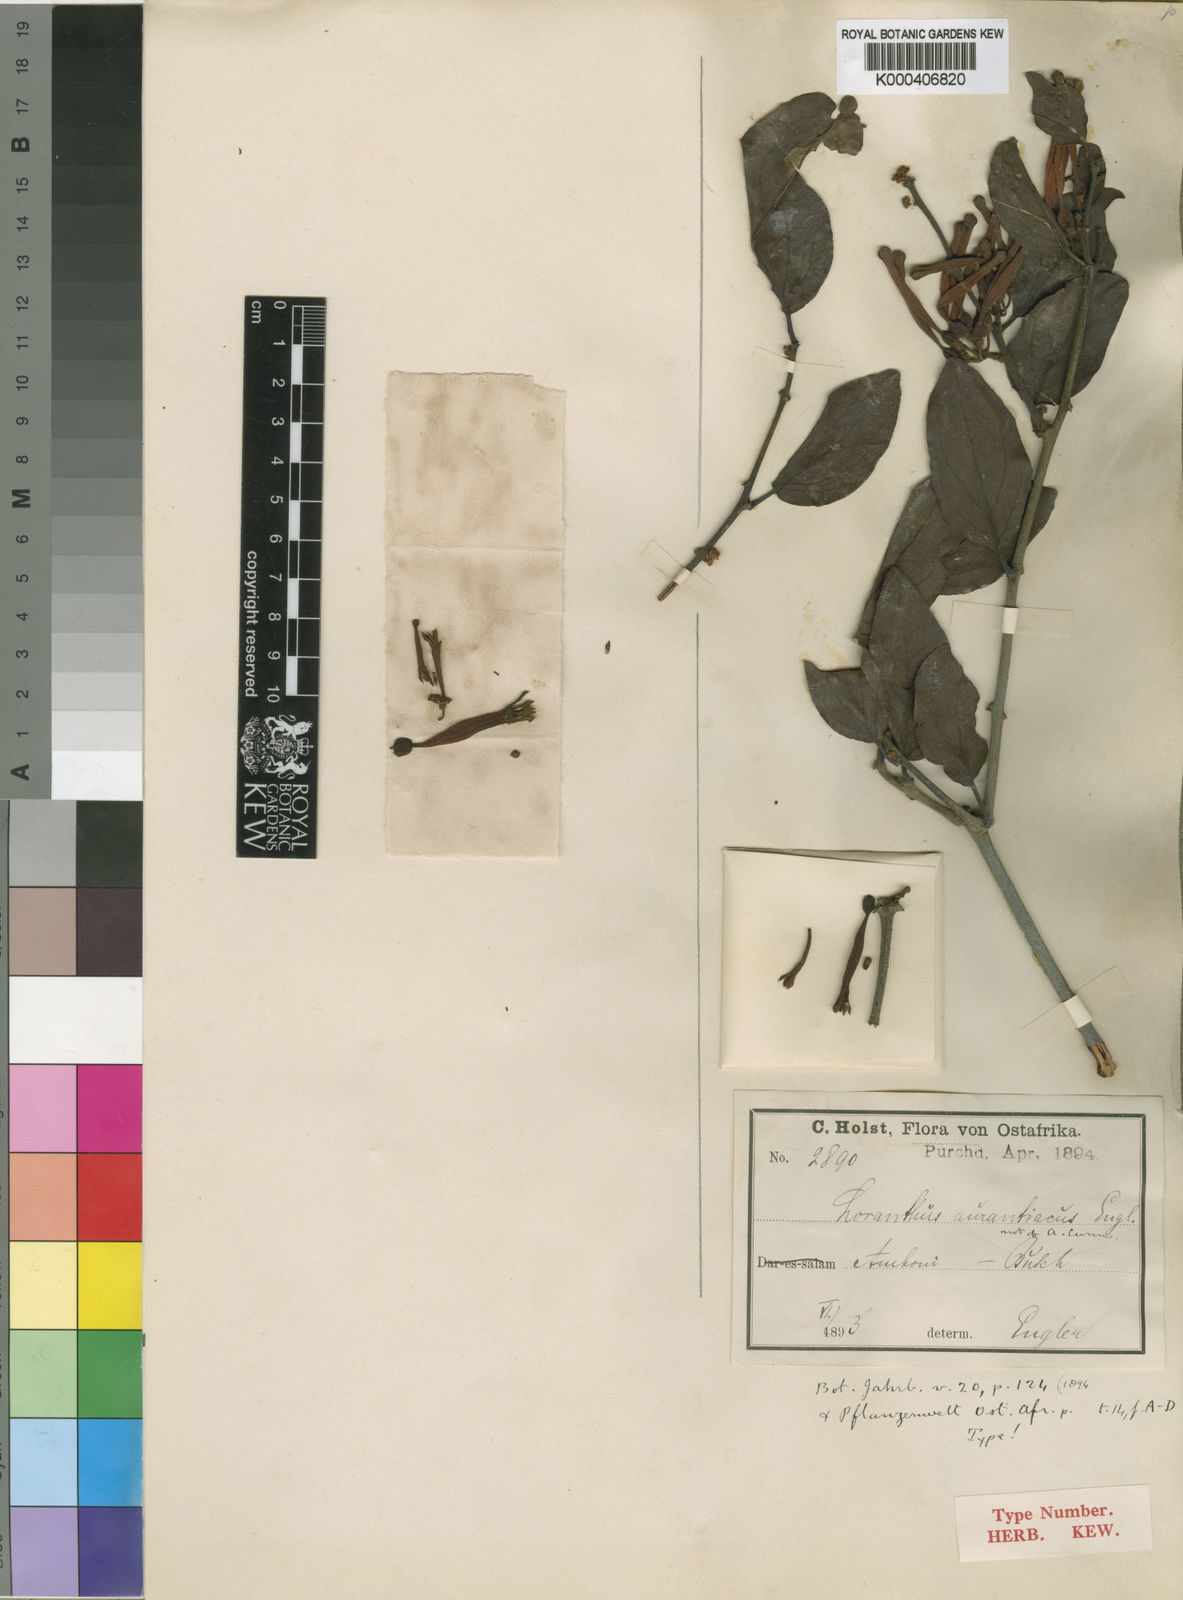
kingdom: Plantae
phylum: Tracheophyta
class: Magnoliopsida
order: Santalales
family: Loranthaceae
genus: Agelanthus
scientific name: Agelanthus heteromorphus
